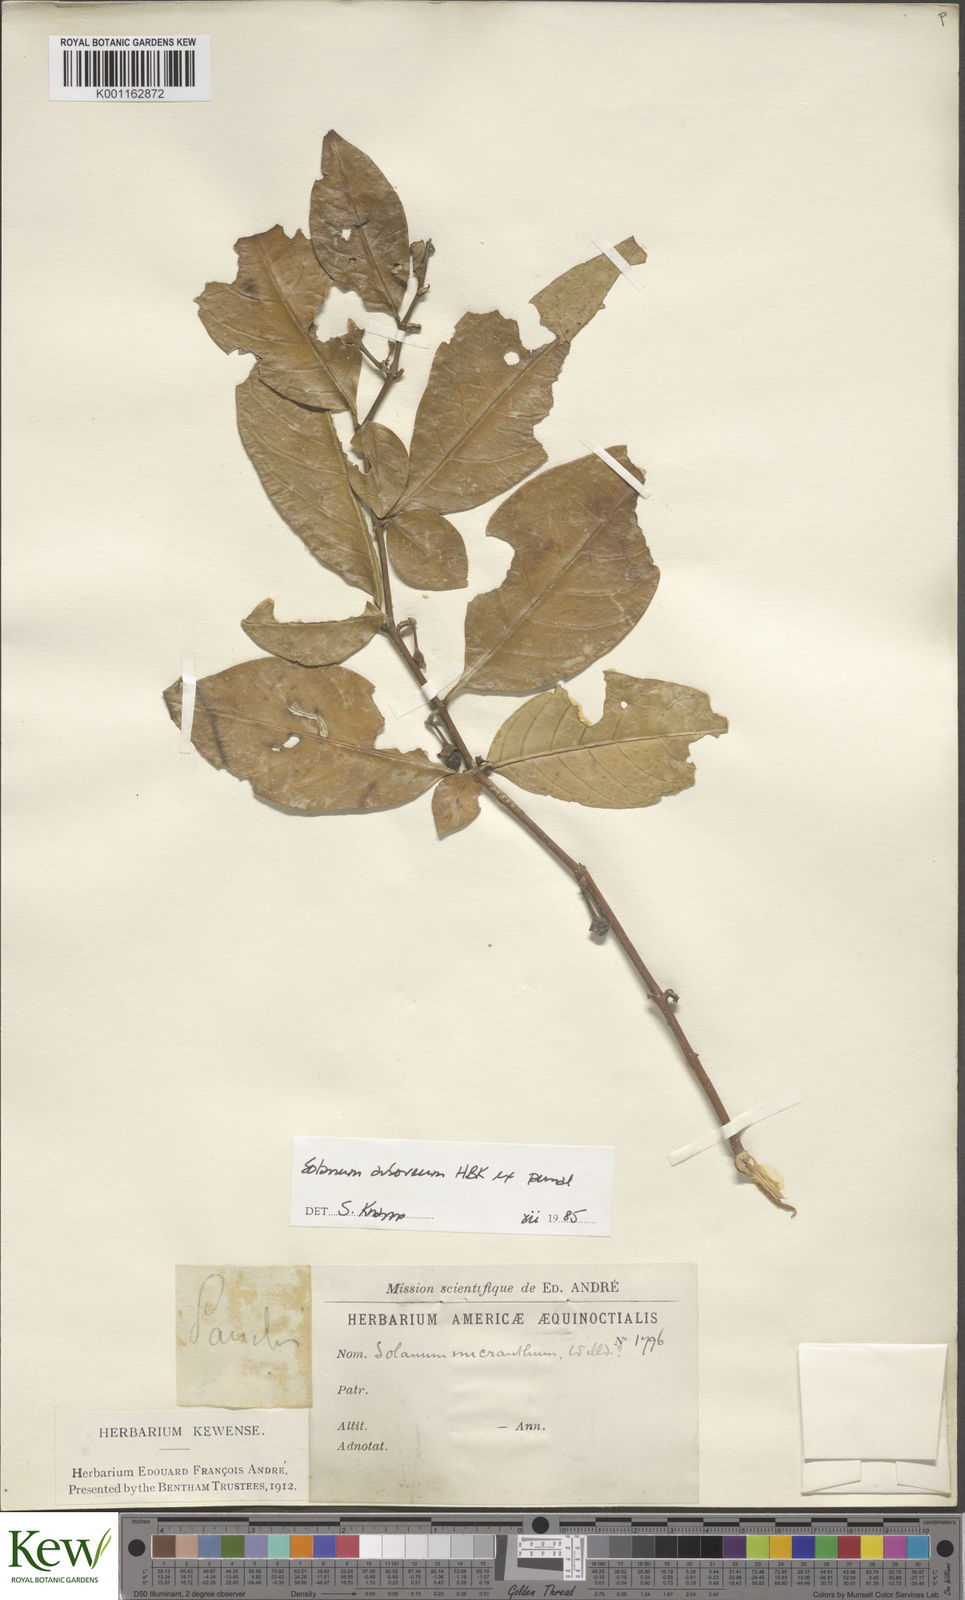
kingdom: Plantae
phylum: Tracheophyta
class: Magnoliopsida
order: Solanales
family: Solanaceae
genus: Solanum
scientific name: Solanum arboreum
